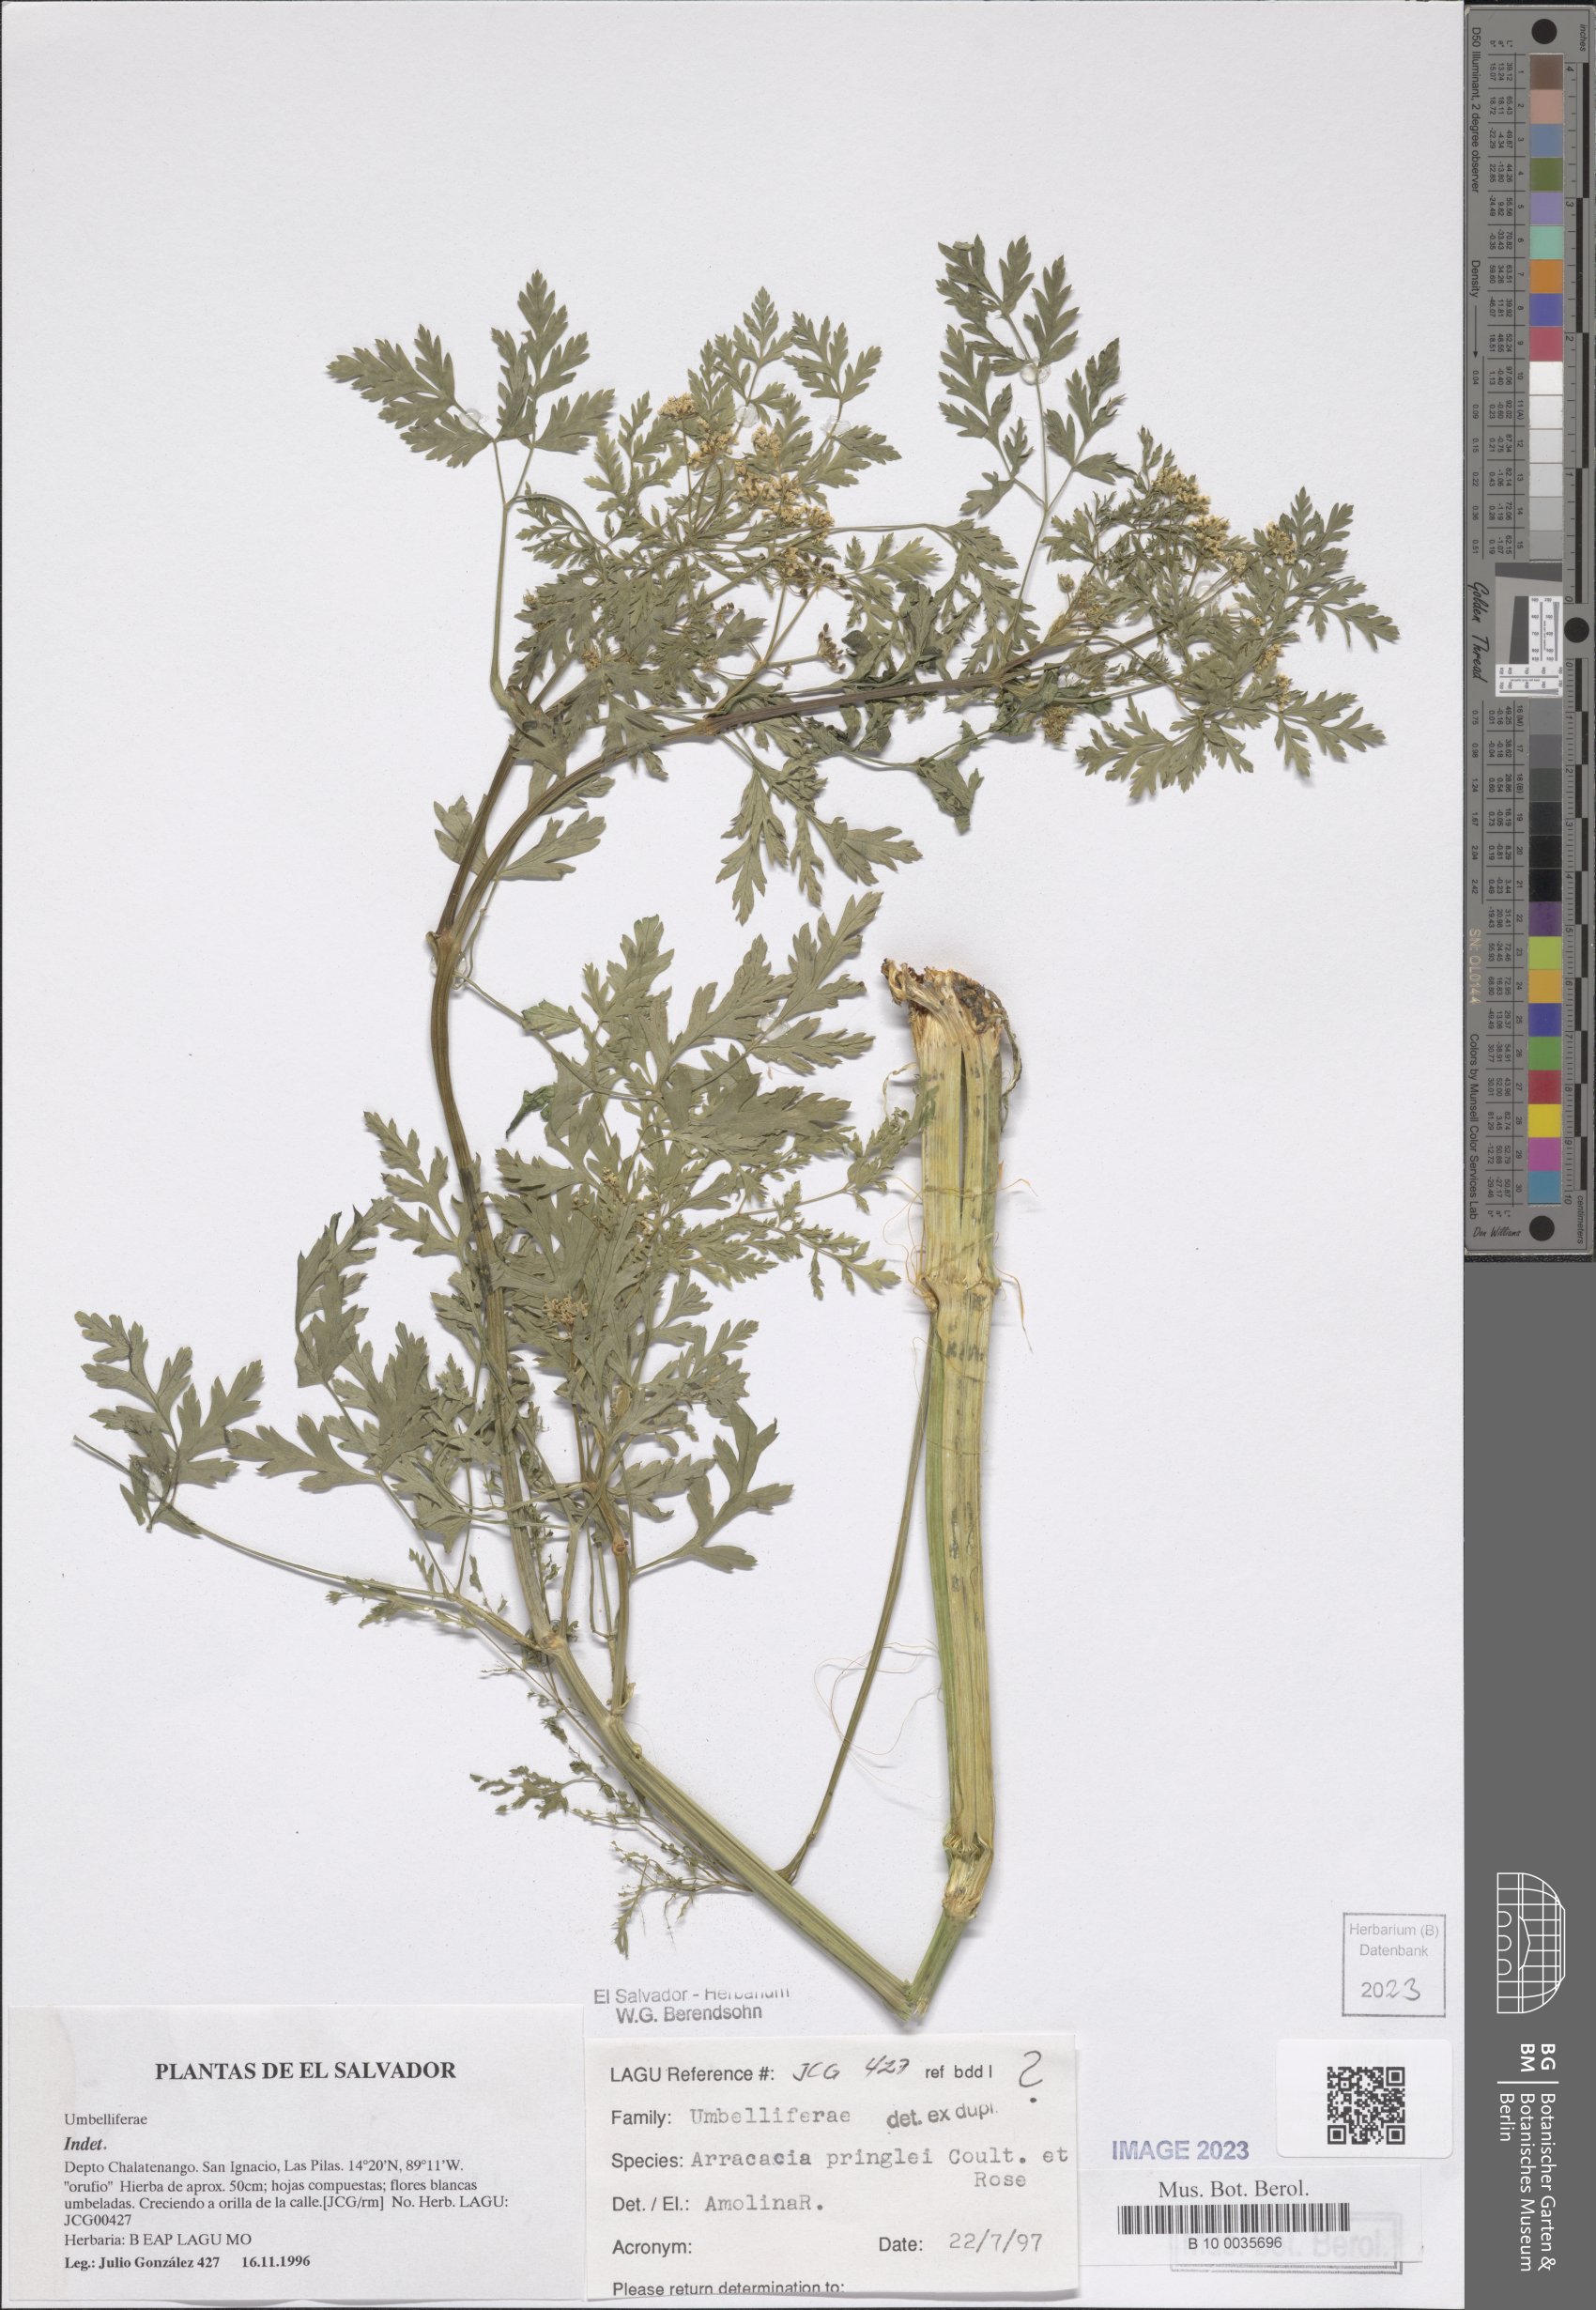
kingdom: Plantae
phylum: Tracheophyta
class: Magnoliopsida
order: Apiales
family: Apiaceae
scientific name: Apiaceae
